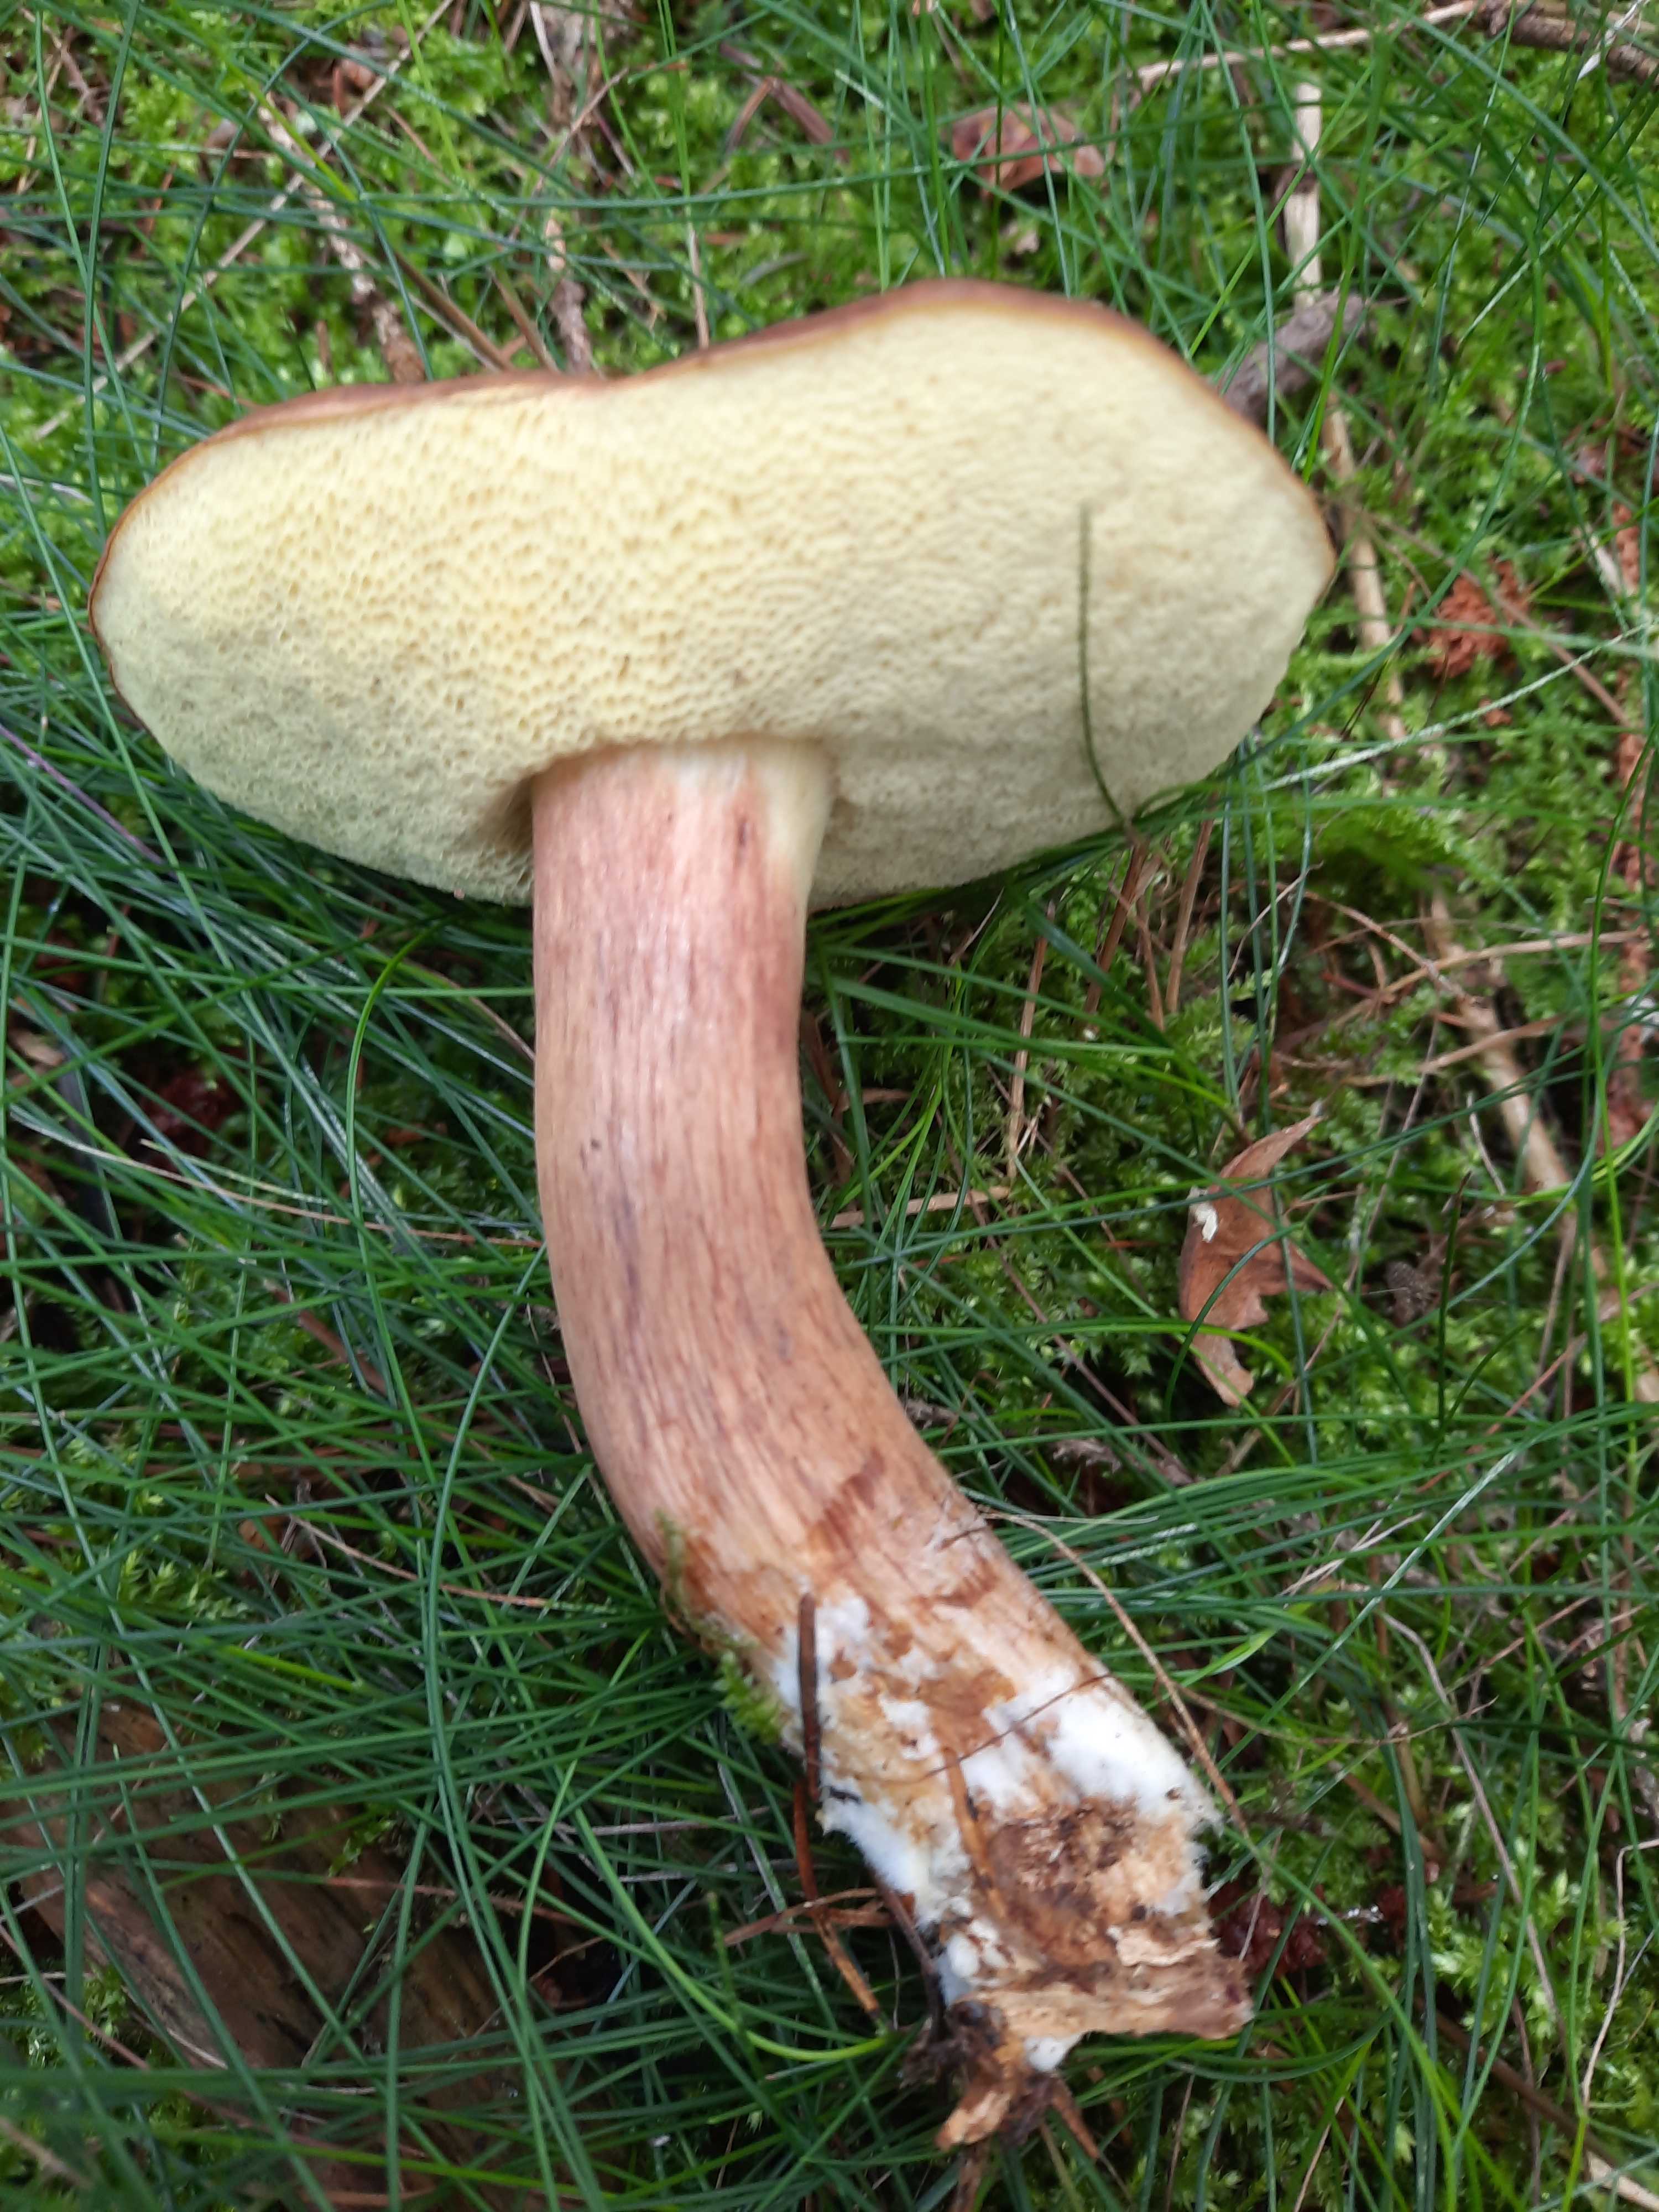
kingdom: Fungi
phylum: Basidiomycota
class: Agaricomycetes
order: Boletales
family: Boletaceae
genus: Imleria
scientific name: Imleria badia
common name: brunstokket rørhat
